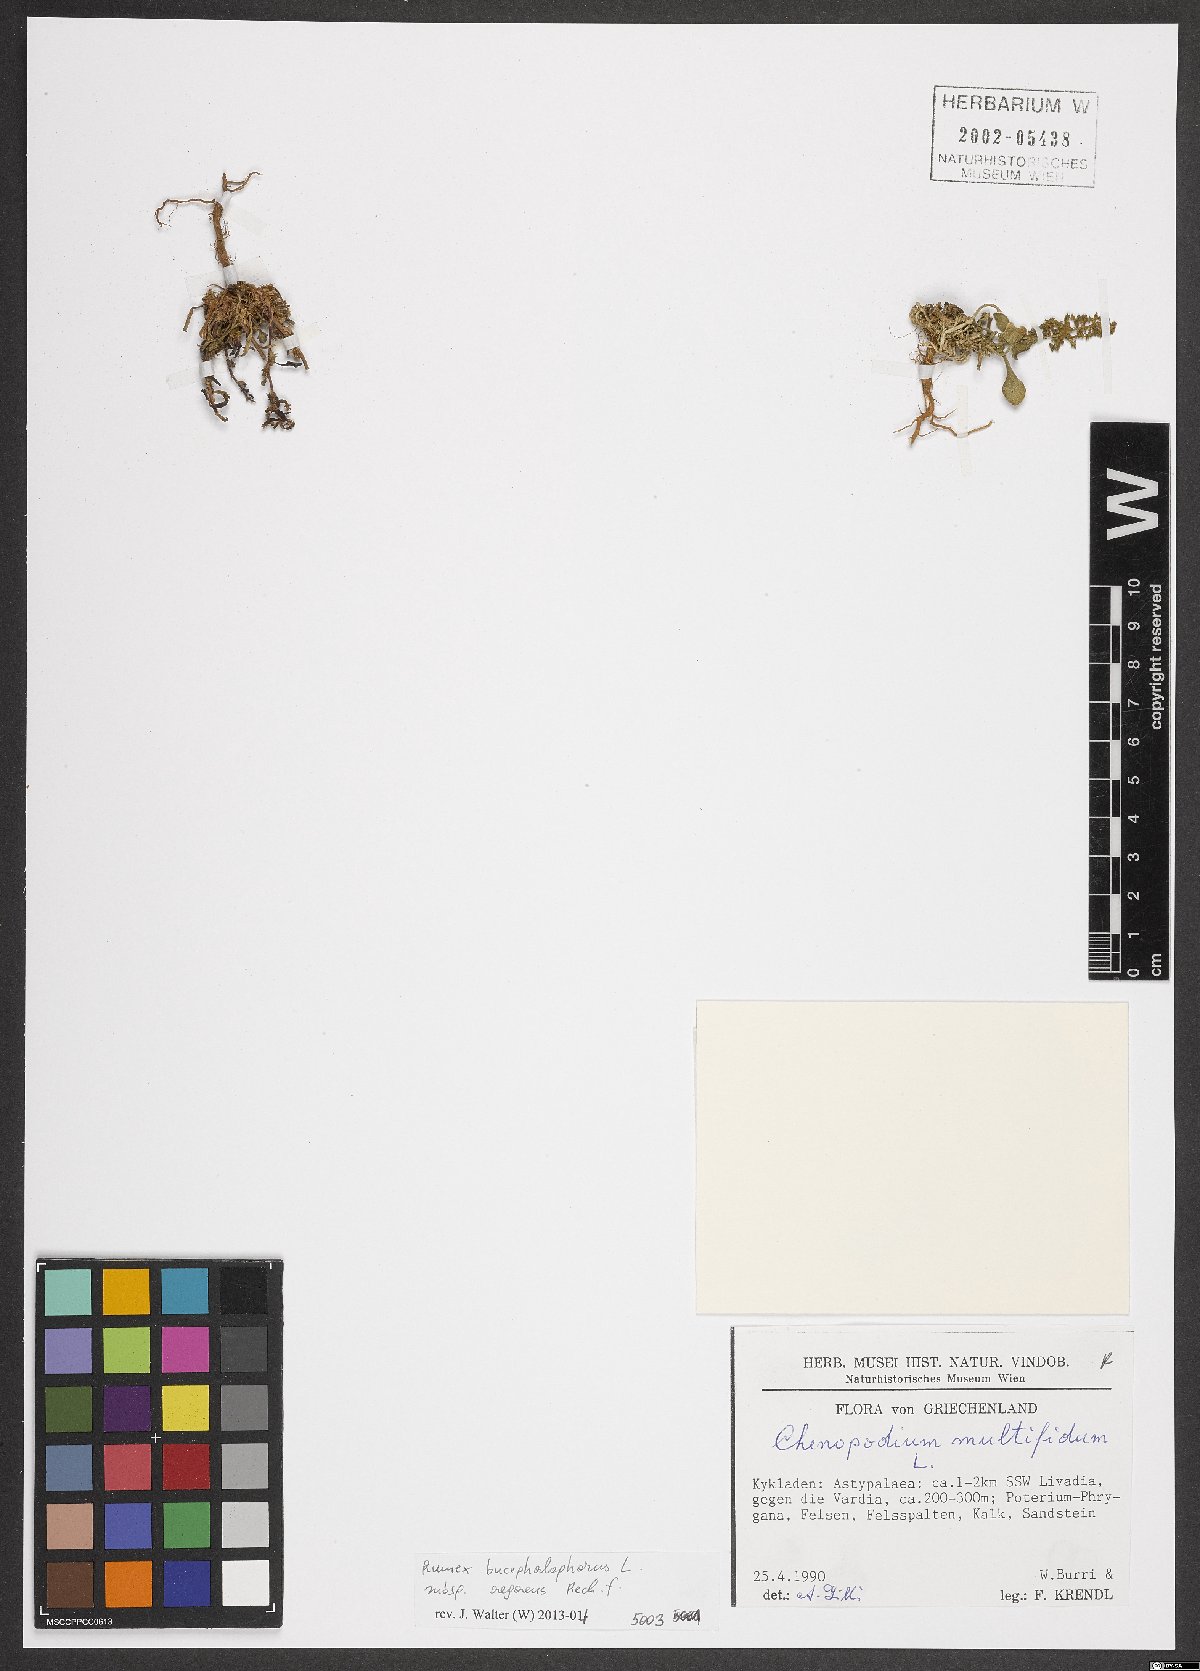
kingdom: Plantae
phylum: Tracheophyta
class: Magnoliopsida
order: Caryophyllales
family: Polygonaceae
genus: Rumex
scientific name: Rumex bucephalophorus
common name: Red dock
